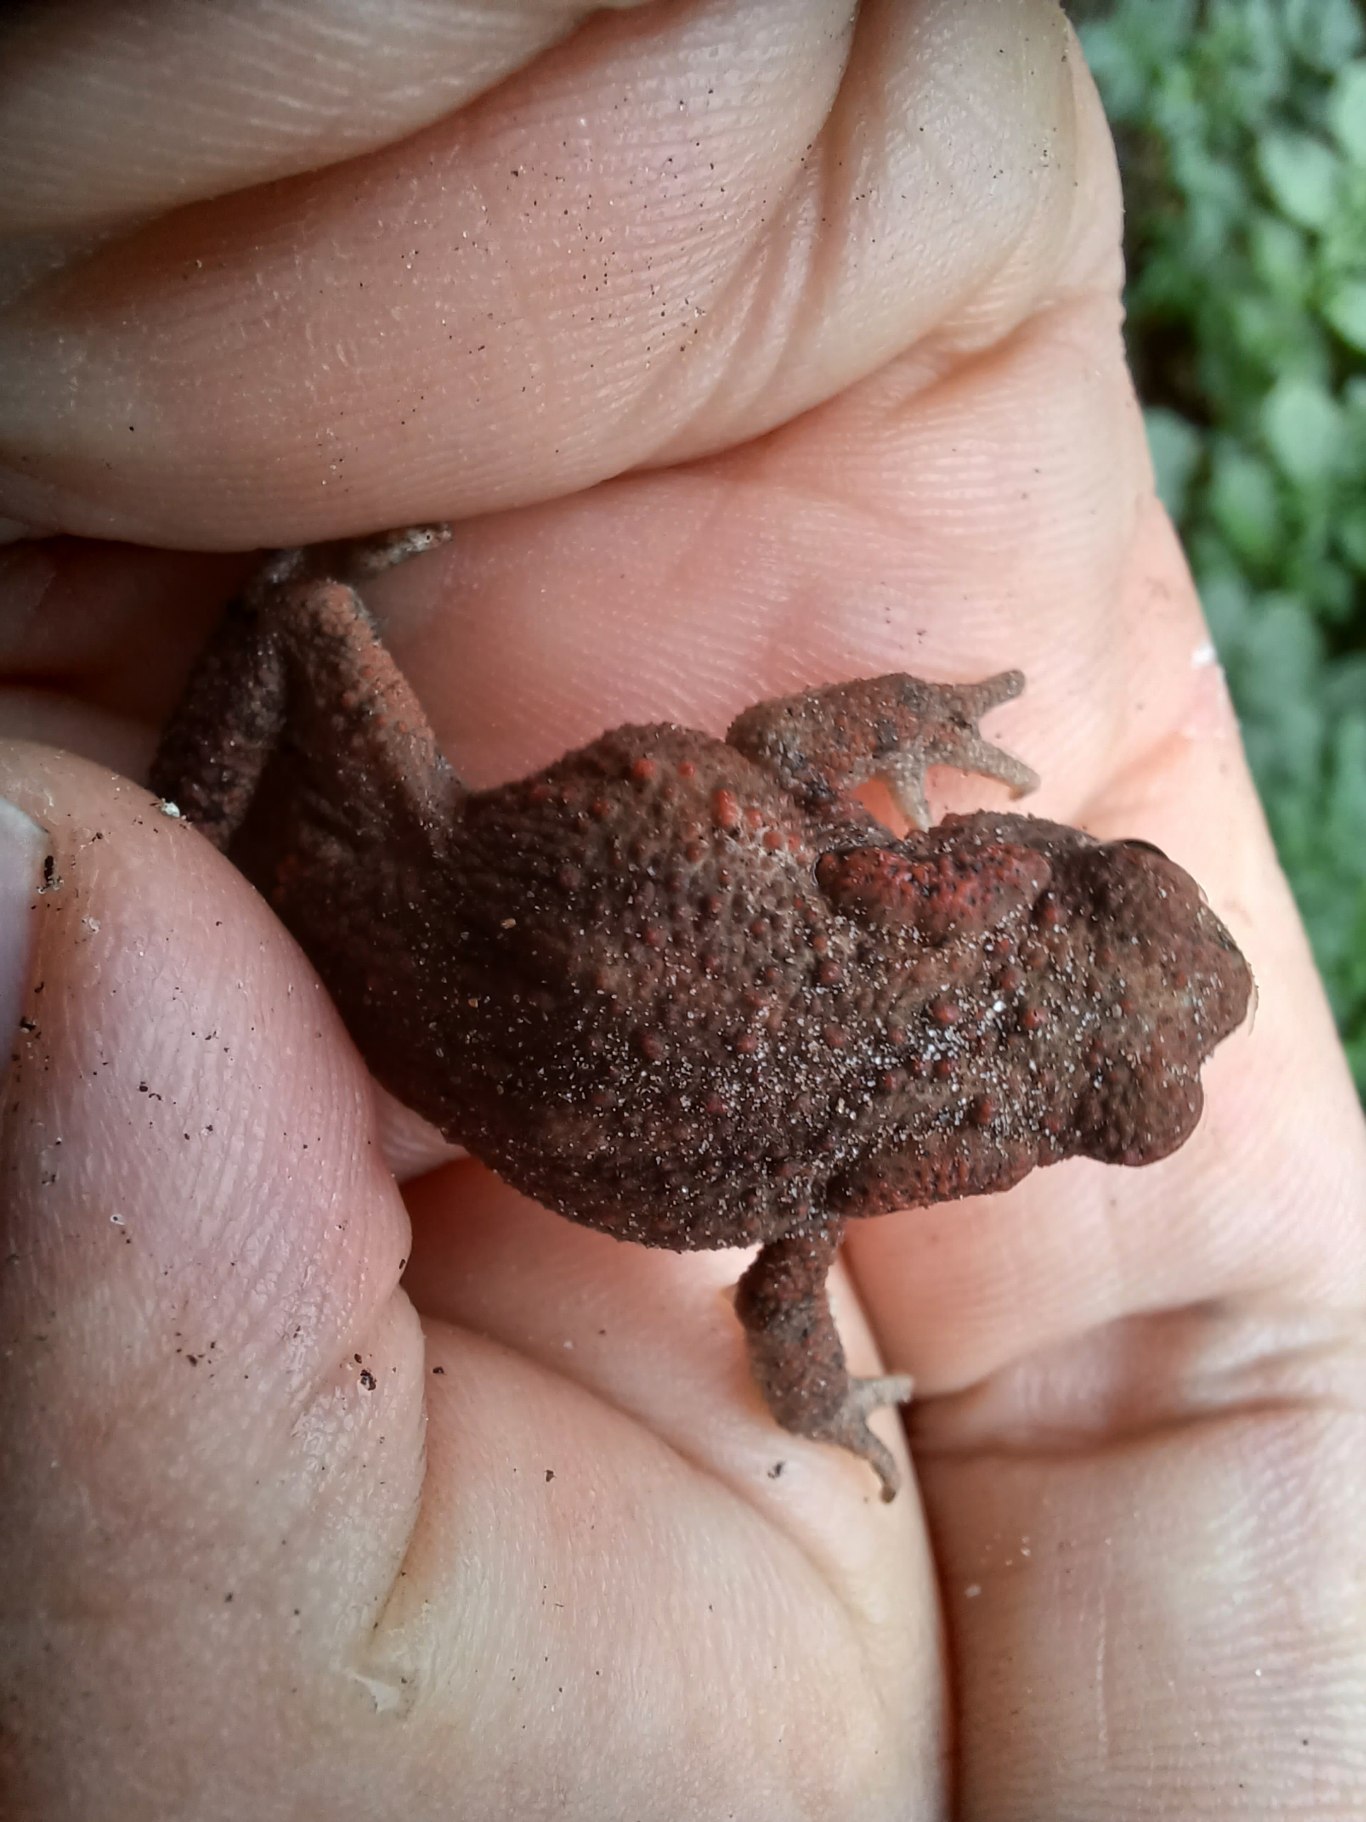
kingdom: Animalia
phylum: Chordata
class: Amphibia
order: Anura
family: Bufonidae
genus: Bufo
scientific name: Bufo bufo
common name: Skrubtudse
